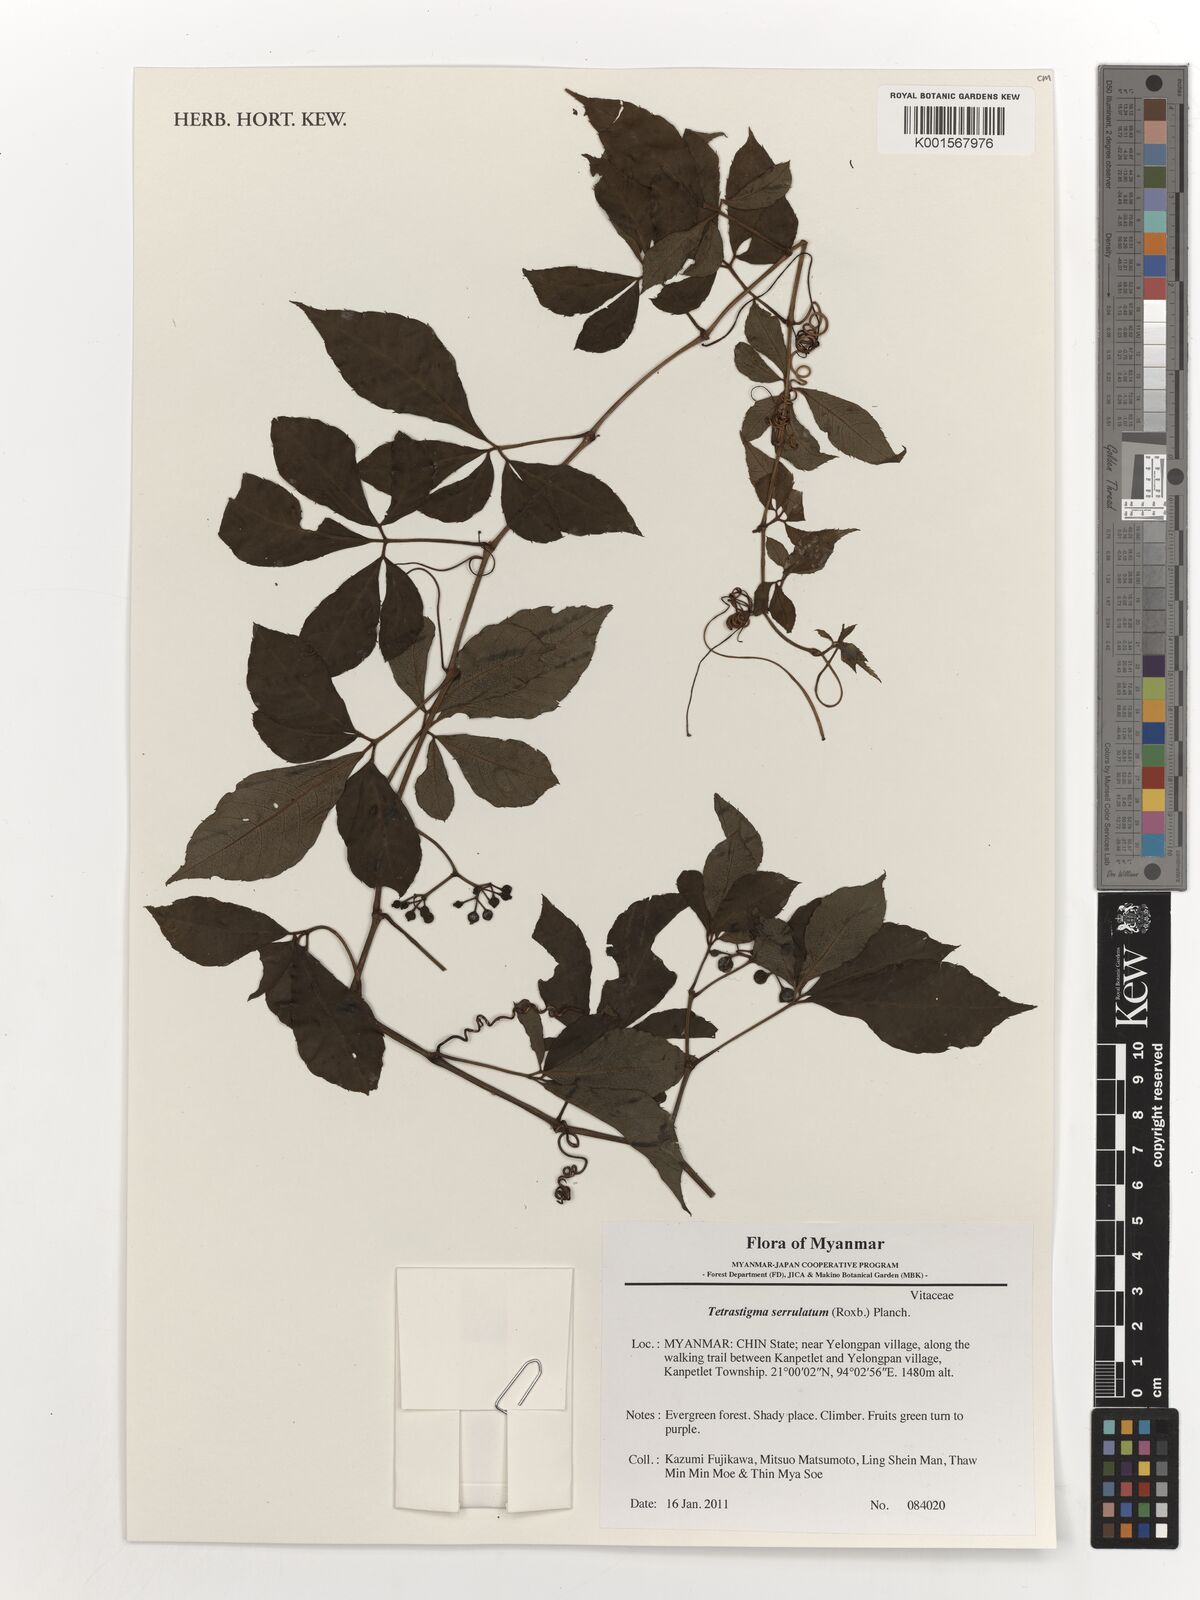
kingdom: Plantae
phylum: Tracheophyta
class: Magnoliopsida
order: Vitales
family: Vitaceae
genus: Tetrastigma
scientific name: Tetrastigma serrulatum
